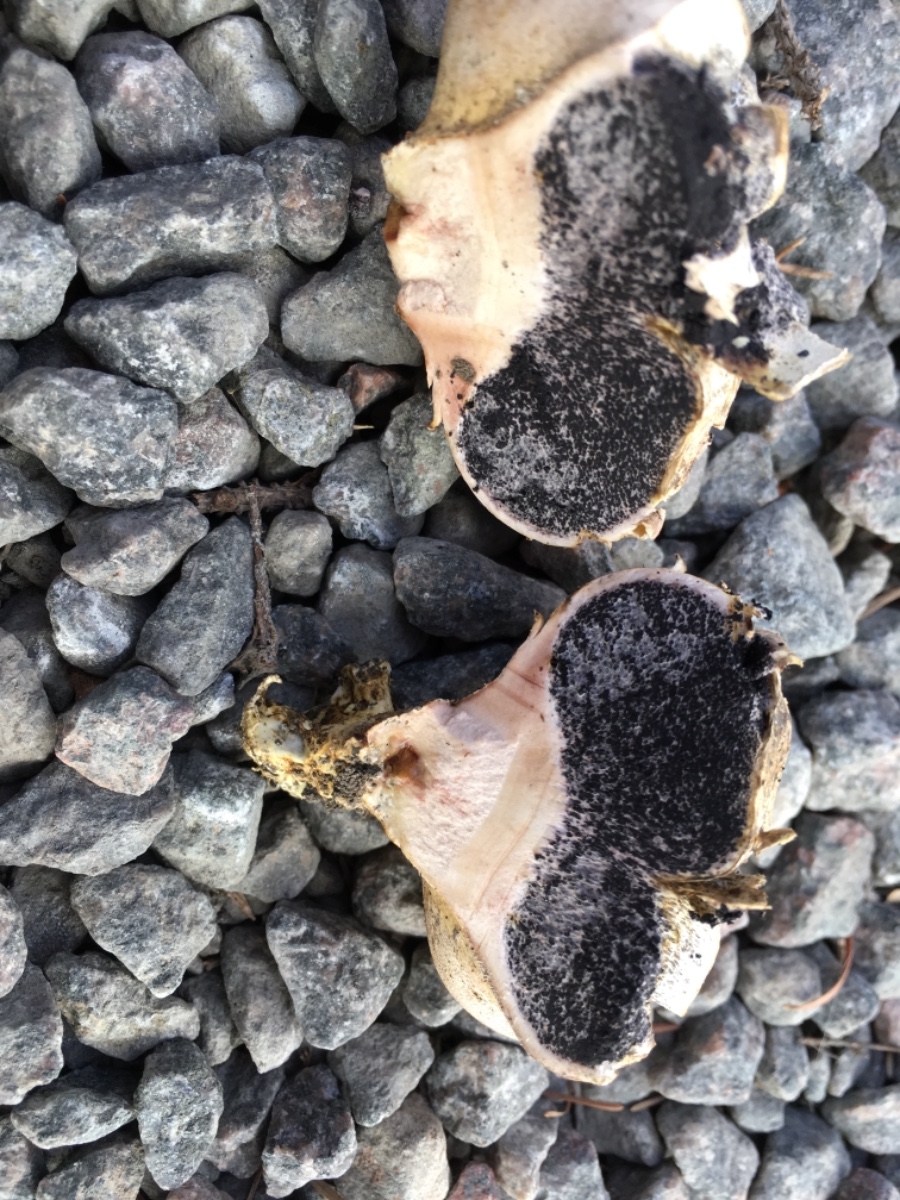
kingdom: Fungi
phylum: Basidiomycota
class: Agaricomycetes
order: Boletales
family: Sclerodermataceae
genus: Scleroderma
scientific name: Scleroderma bovista
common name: bovist-bruskbold
